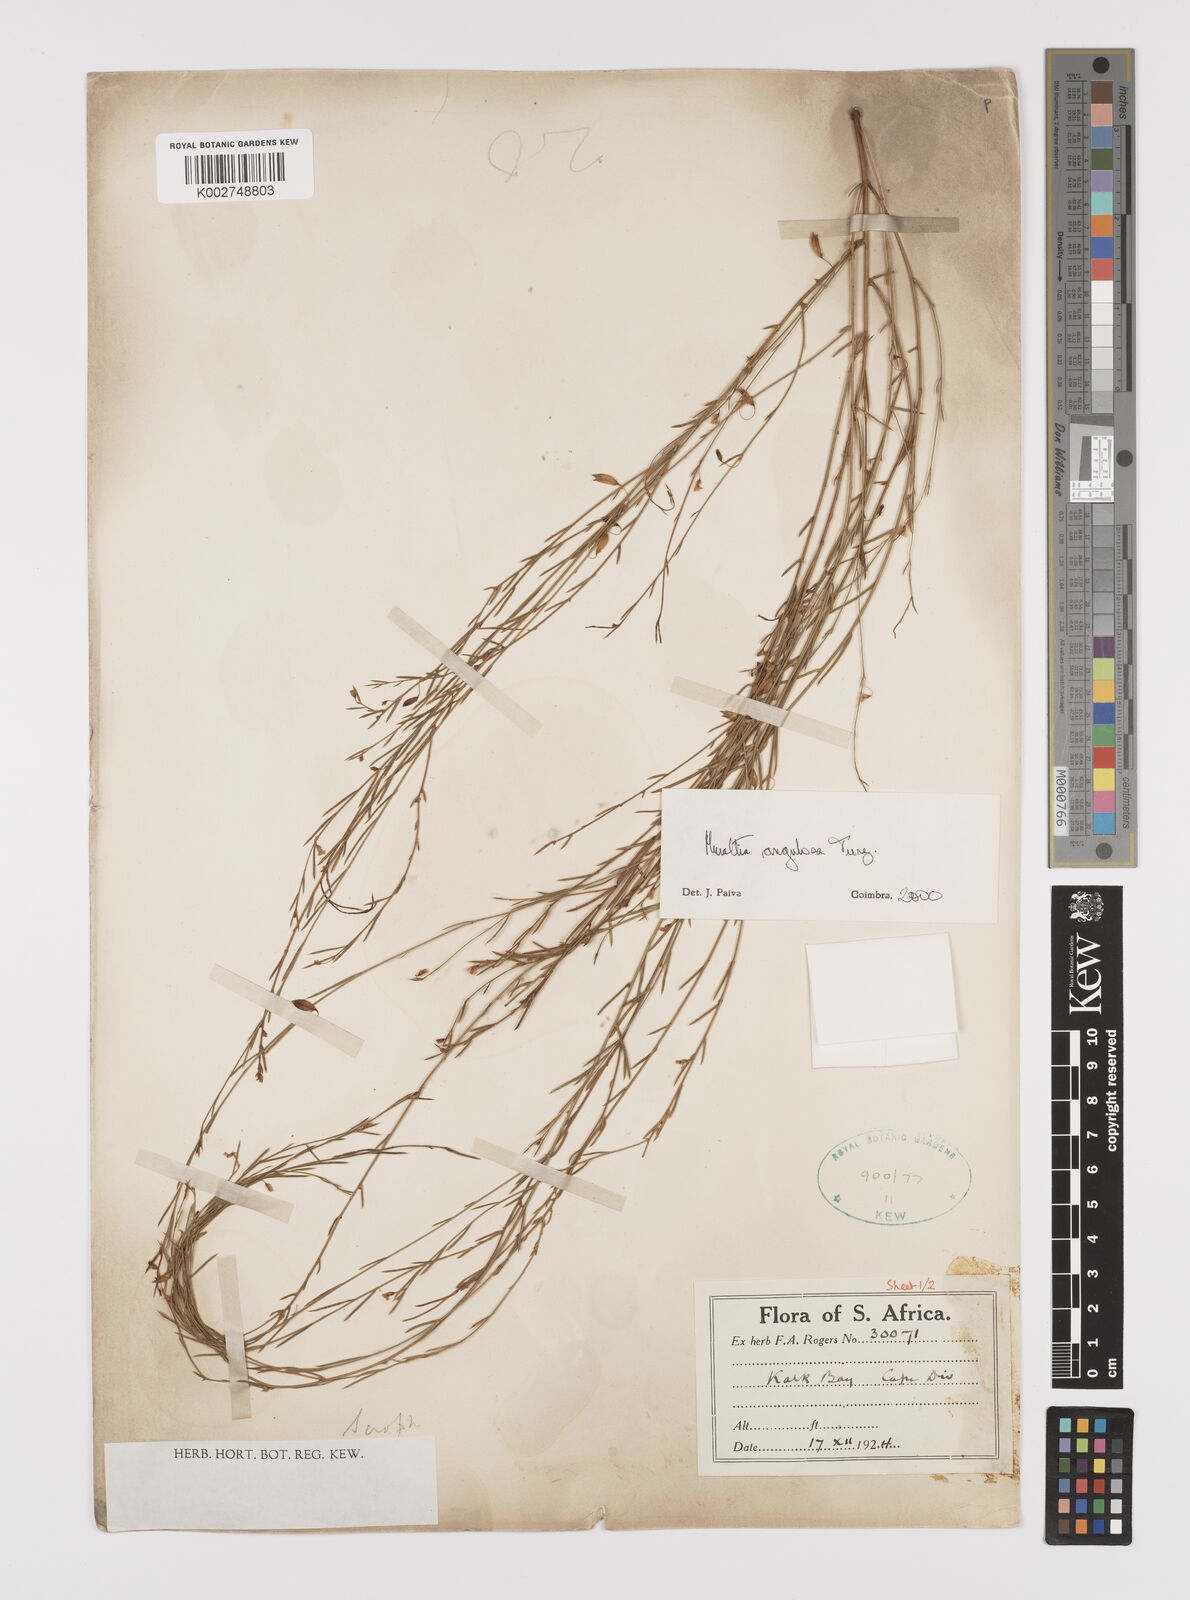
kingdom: Plantae
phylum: Tracheophyta
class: Magnoliopsida
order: Fabales
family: Polygalaceae
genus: Muraltia
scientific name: Muraltia angulosa
